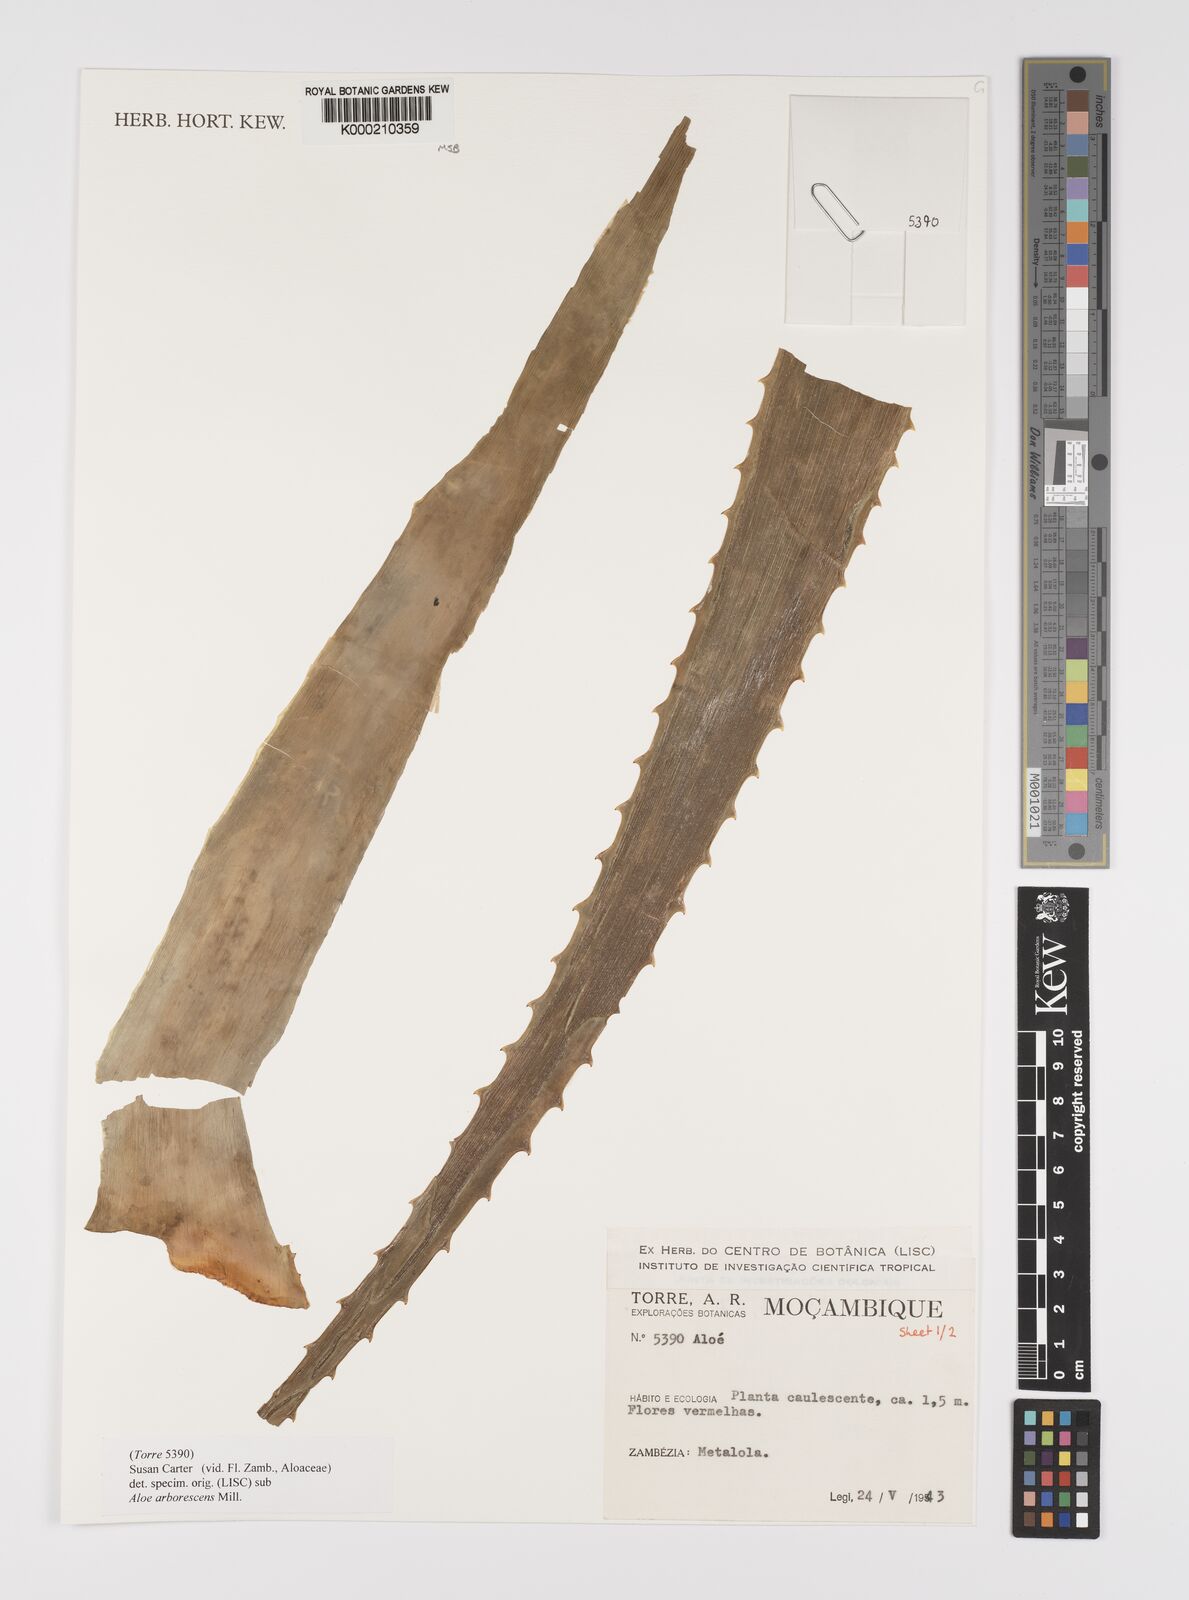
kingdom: Plantae
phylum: Tracheophyta
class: Liliopsida
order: Asparagales
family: Asphodelaceae
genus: Aloe
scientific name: Aloe arborescens
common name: Candelabra aloe
